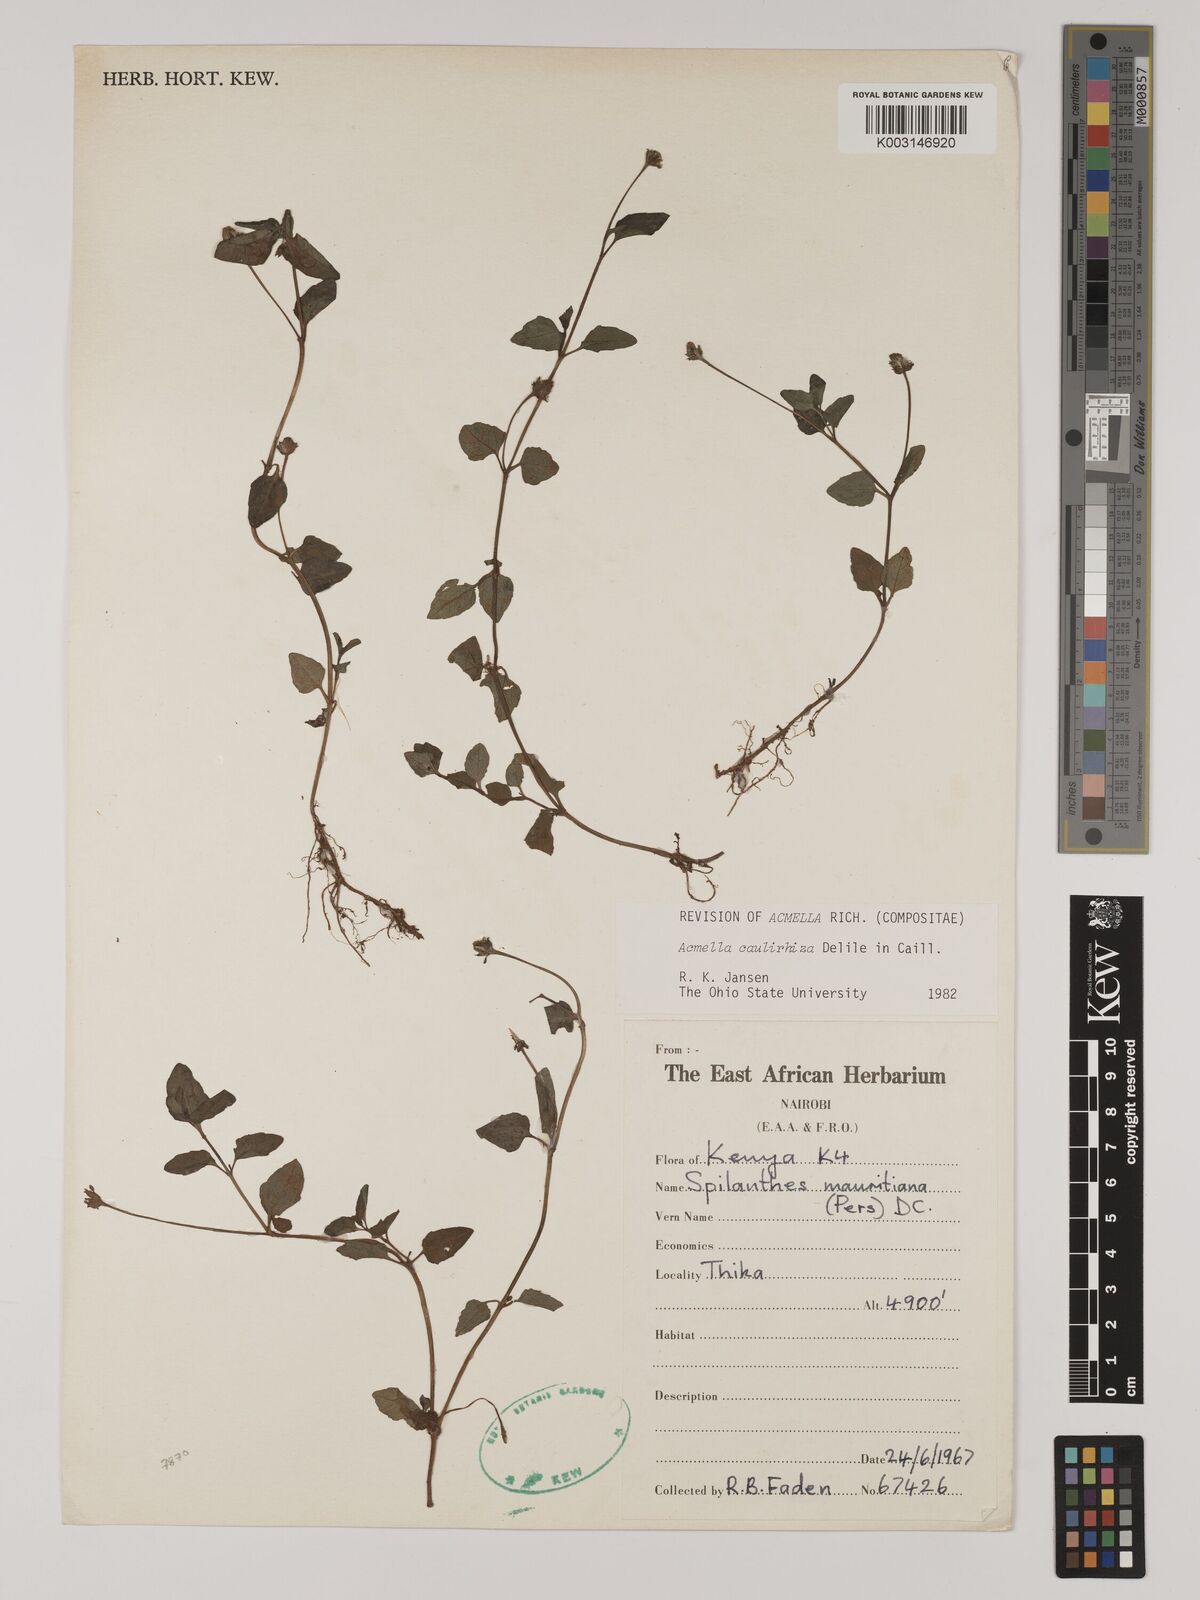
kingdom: Plantae
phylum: Tracheophyta
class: Magnoliopsida
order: Asterales
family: Asteraceae
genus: Acmella
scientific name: Acmella caulirhiza
